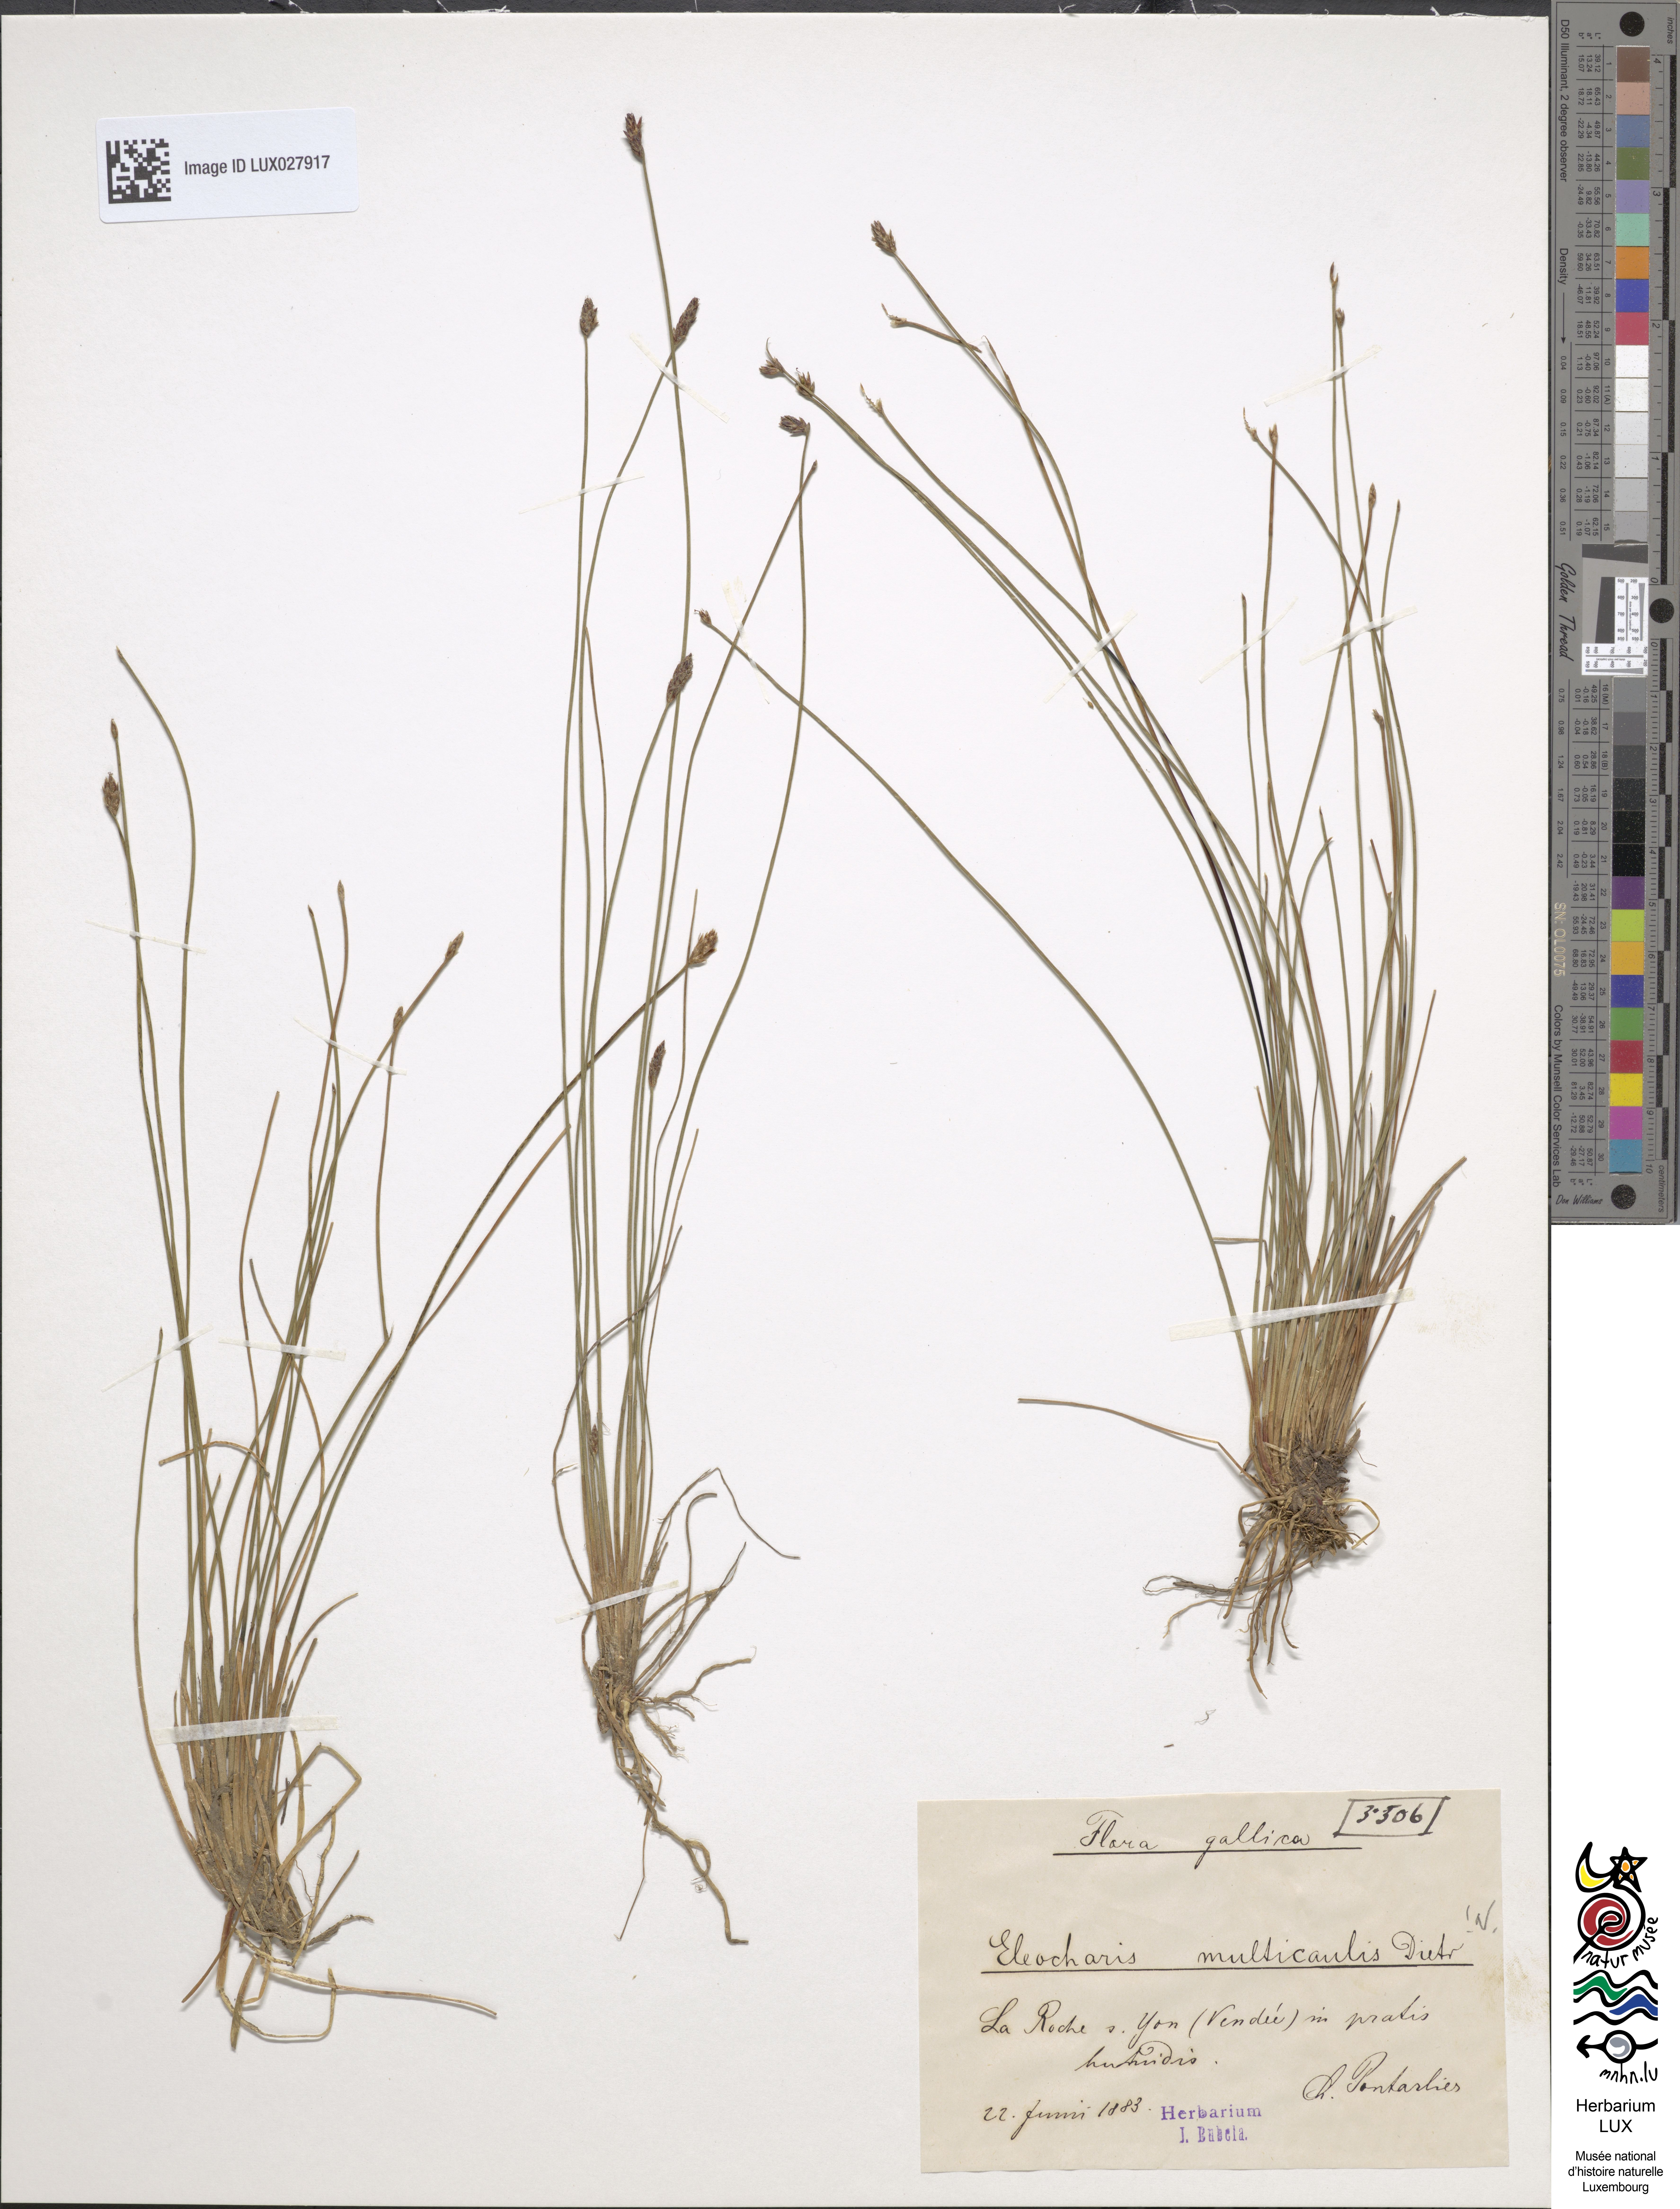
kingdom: Plantae
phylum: Tracheophyta
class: Liliopsida
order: Poales
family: Cyperaceae
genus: Eleocharis
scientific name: Eleocharis multicaulis
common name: Many-stalked spike-rush
